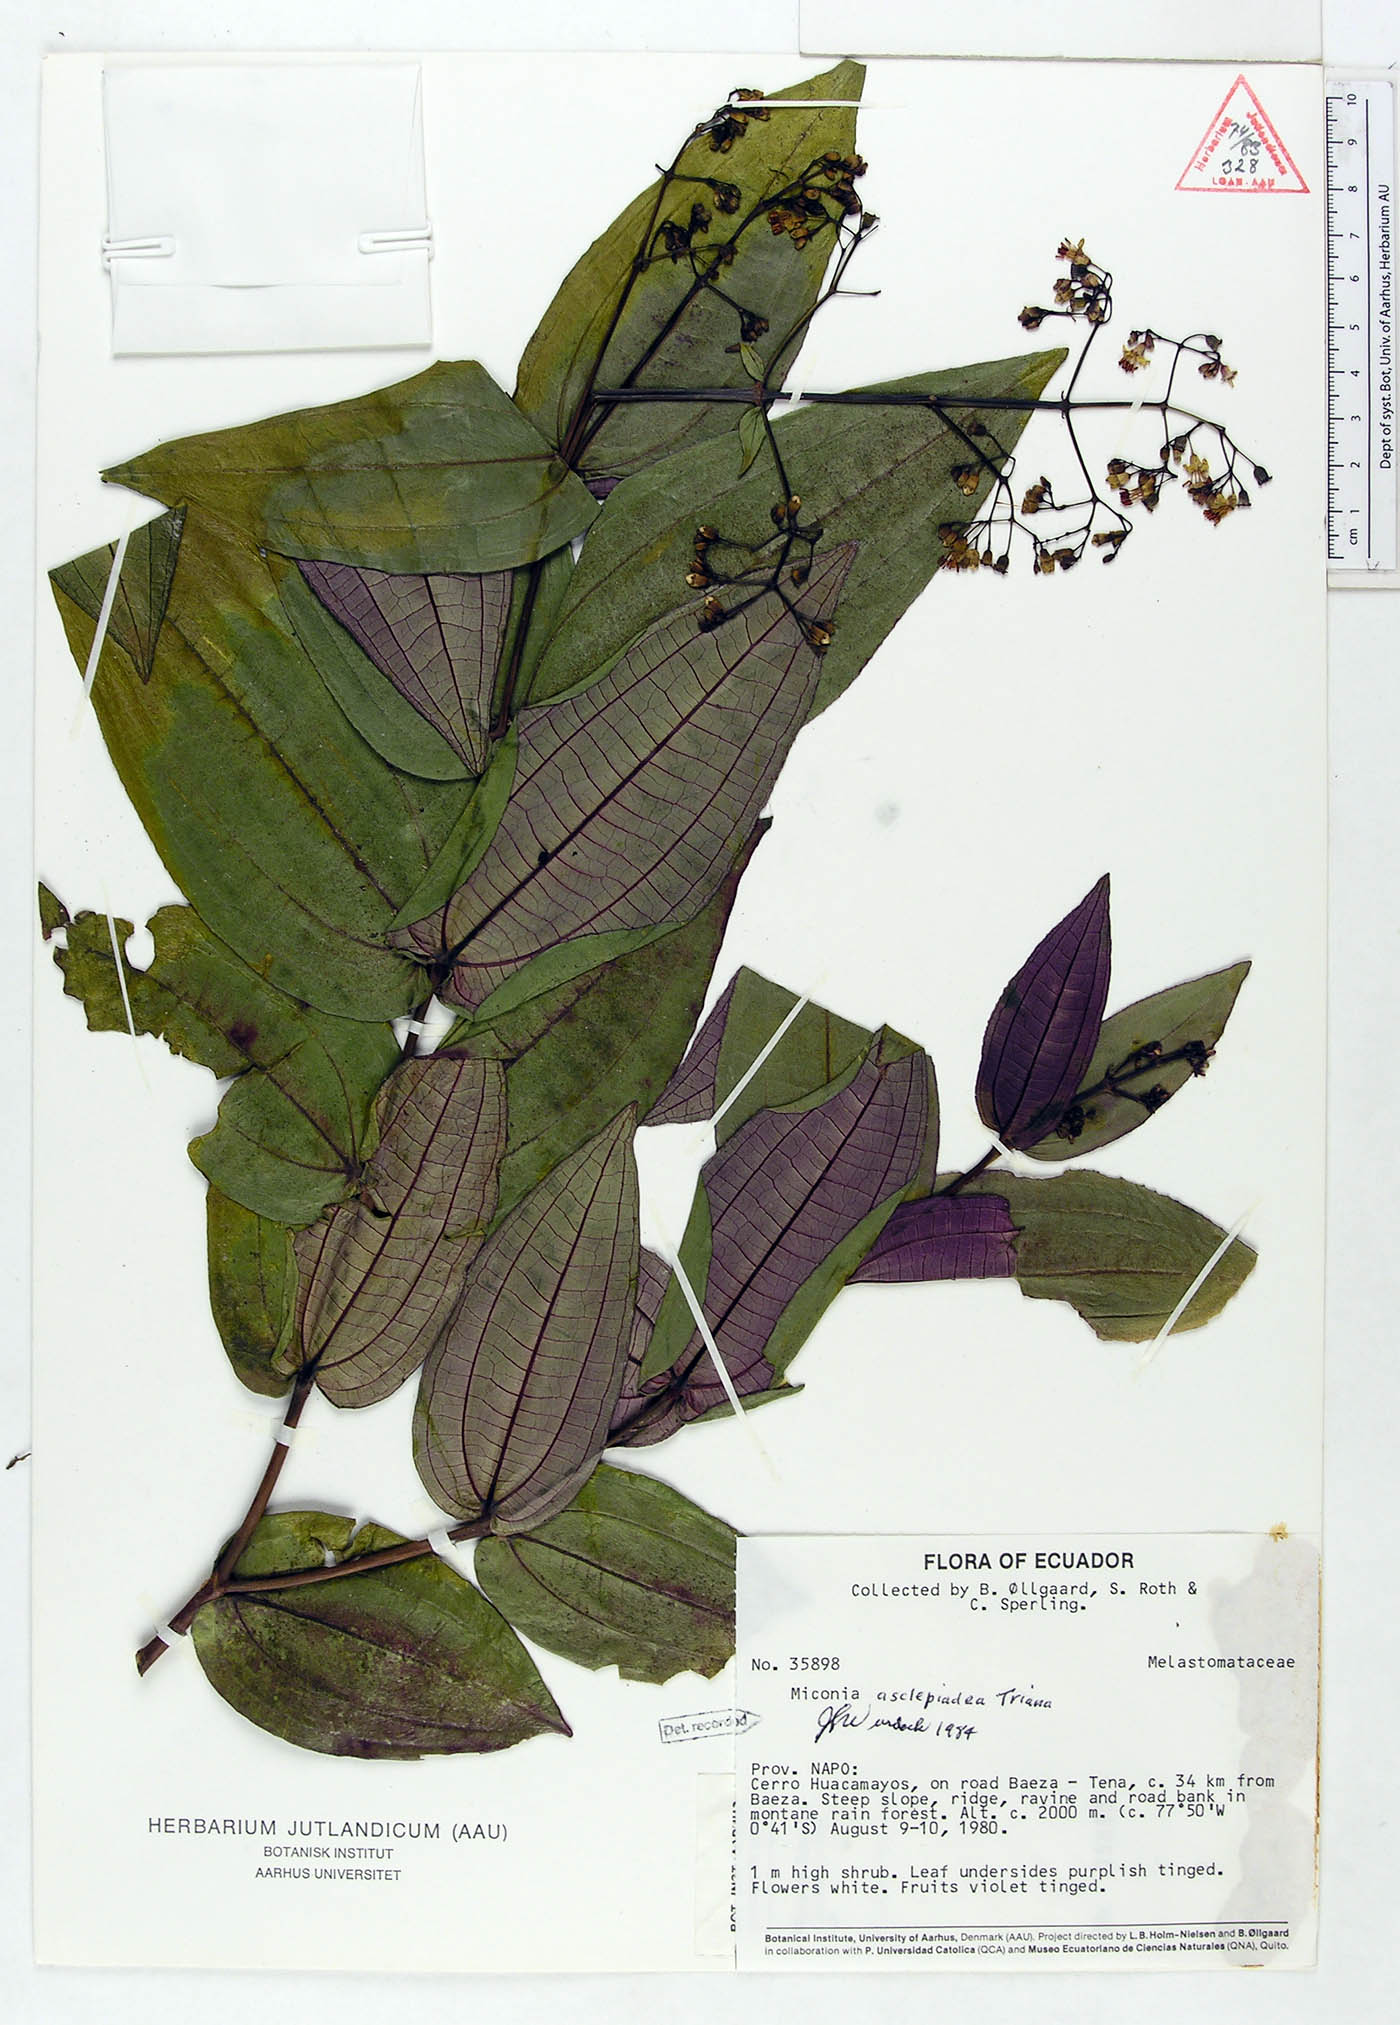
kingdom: Plantae
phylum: Tracheophyta
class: Magnoliopsida
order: Myrtales
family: Melastomataceae
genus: Miconia
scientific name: Miconia asclepiadea
